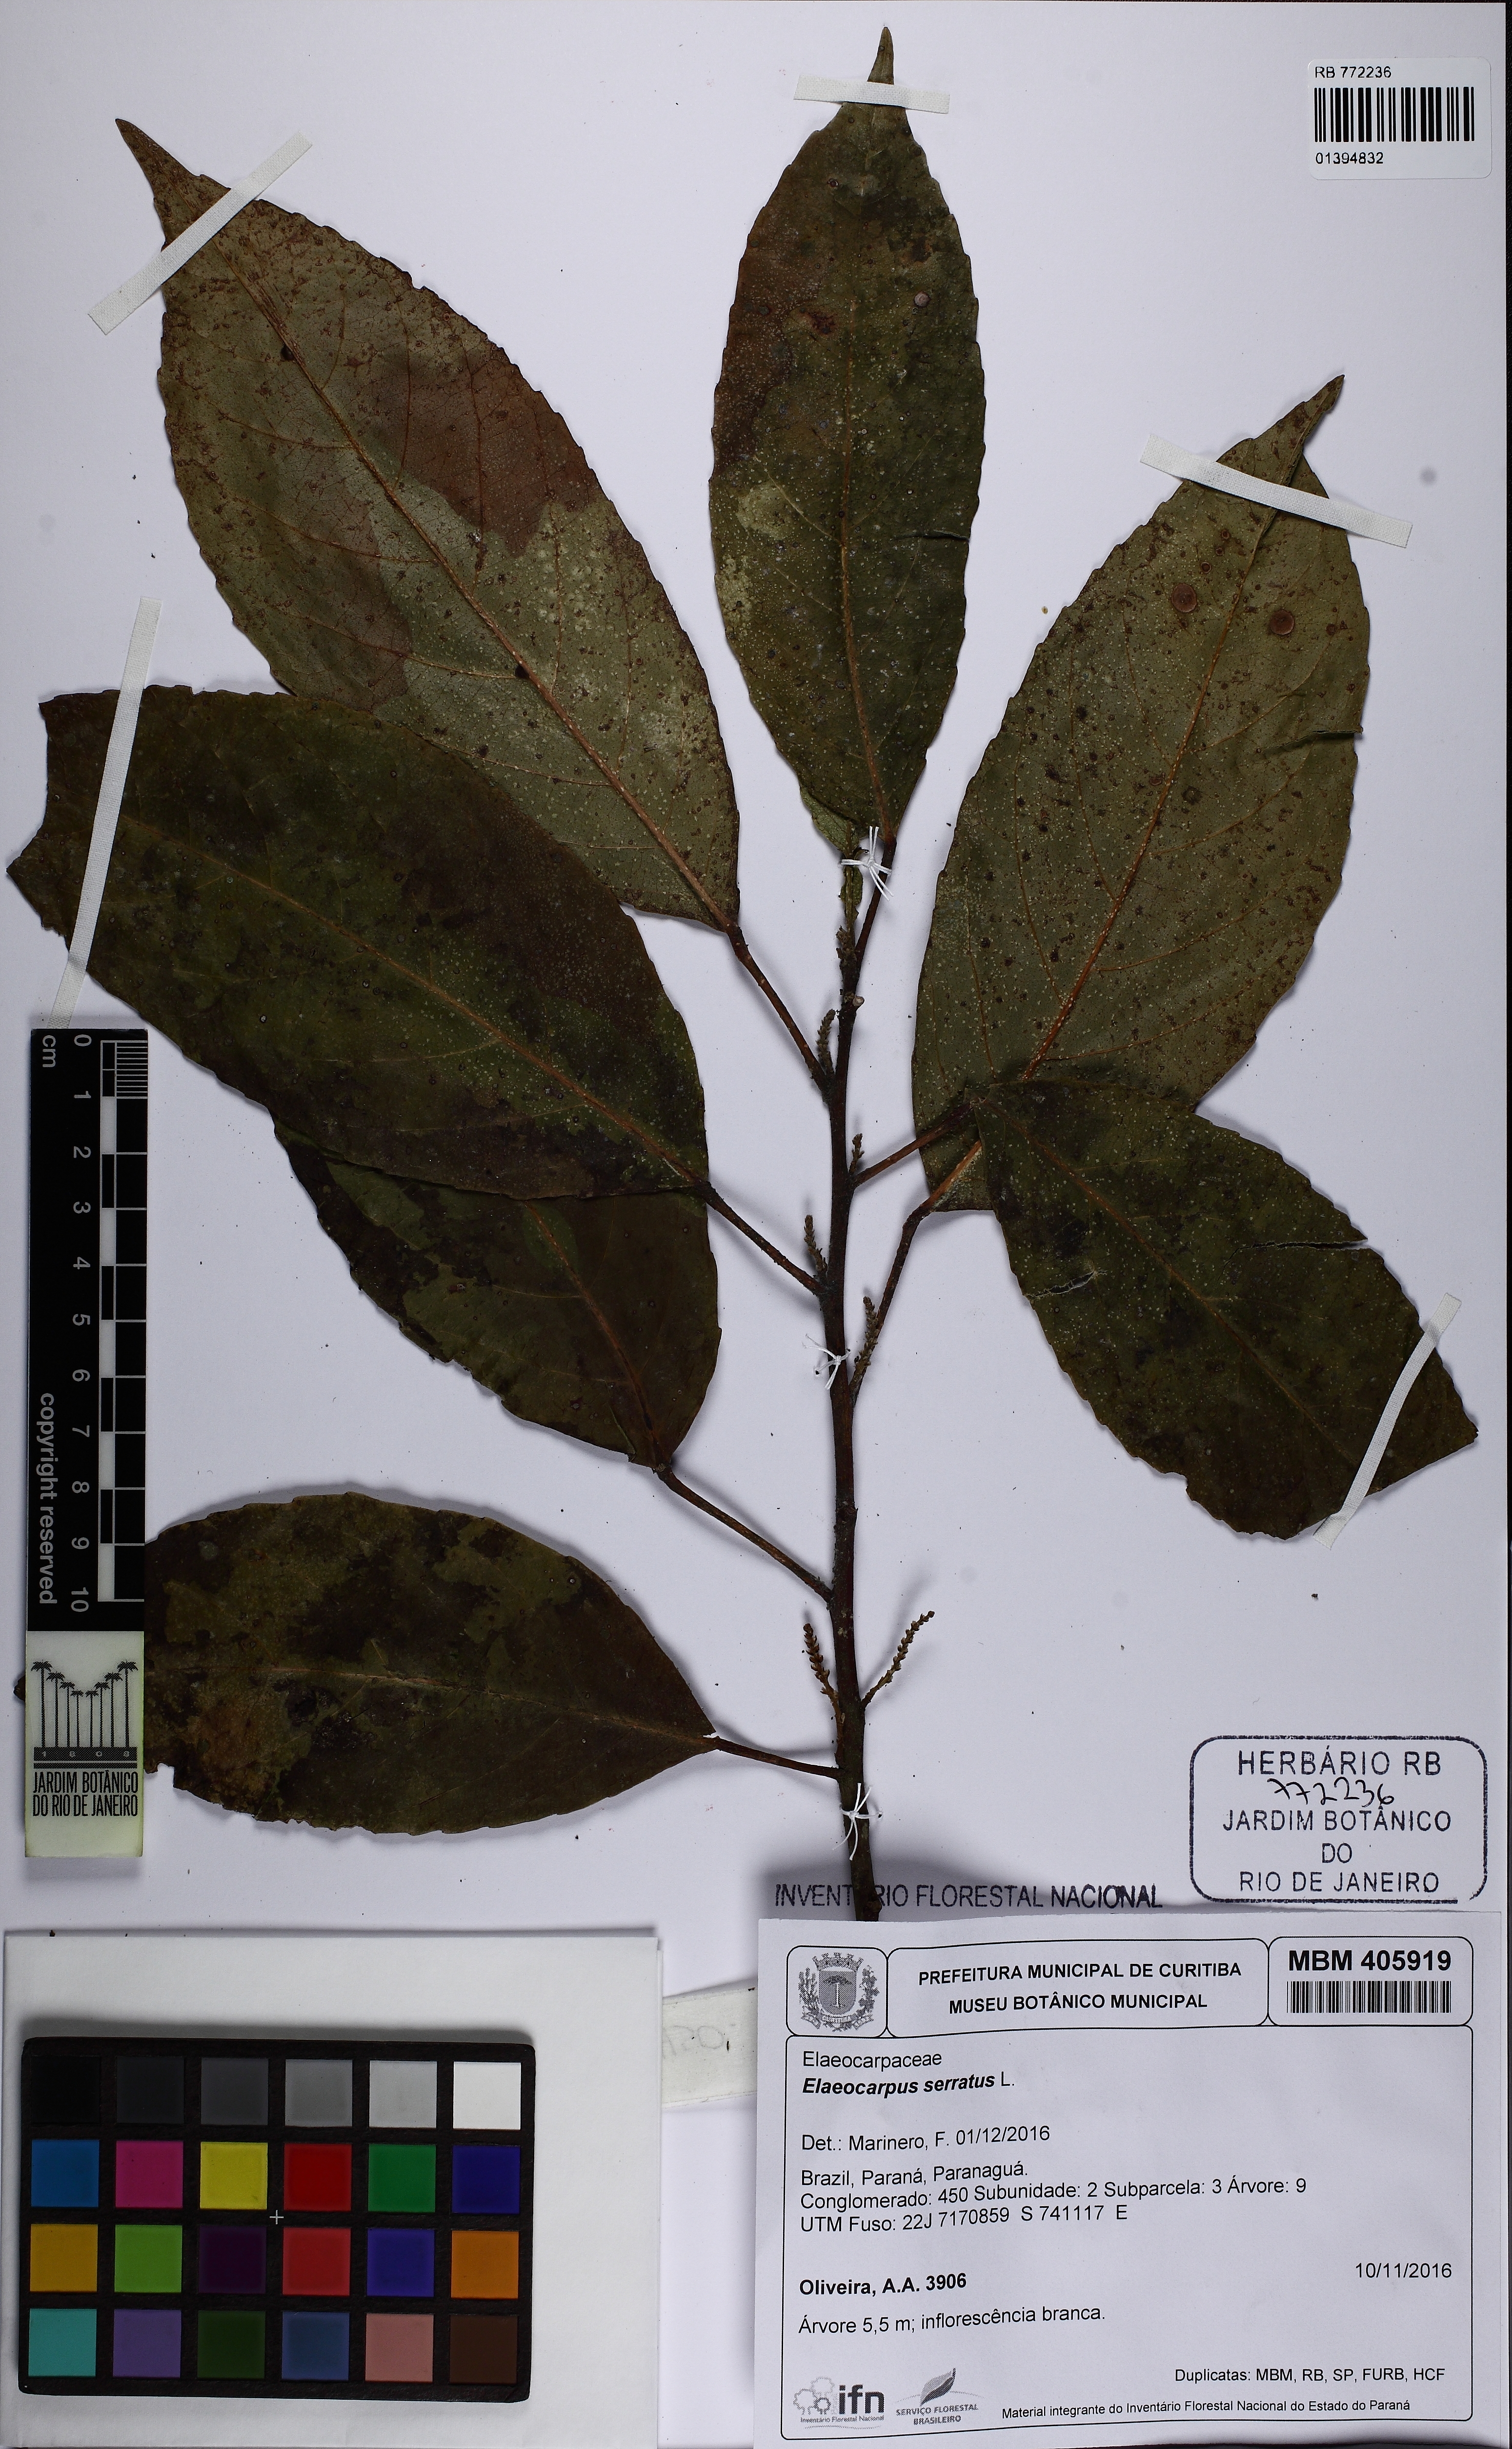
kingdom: Plantae
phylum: Tracheophyta
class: Magnoliopsida
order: Oxalidales
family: Elaeocarpaceae
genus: Elaeocarpus
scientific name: Elaeocarpus serratus
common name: Ceylon-olive
